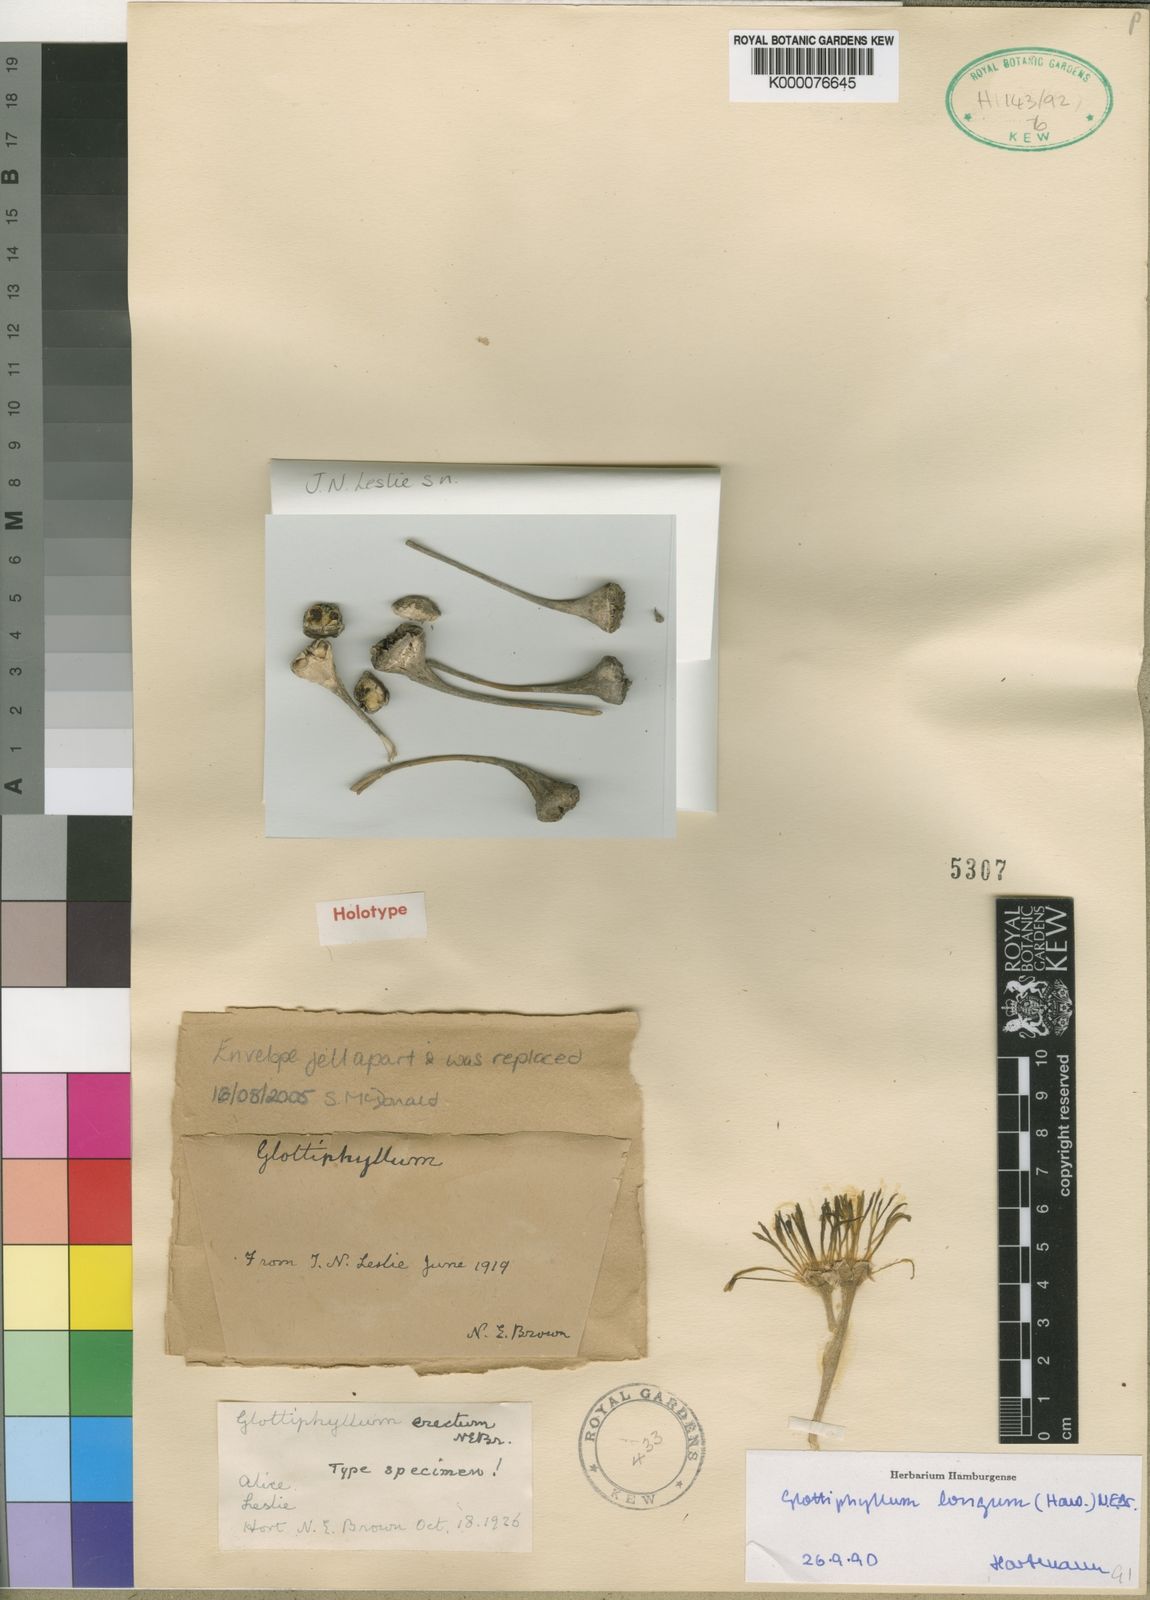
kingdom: Plantae
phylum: Tracheophyta
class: Magnoliopsida
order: Caryophyllales
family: Aizoaceae
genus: Glottiphyllum
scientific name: Glottiphyllum longum
